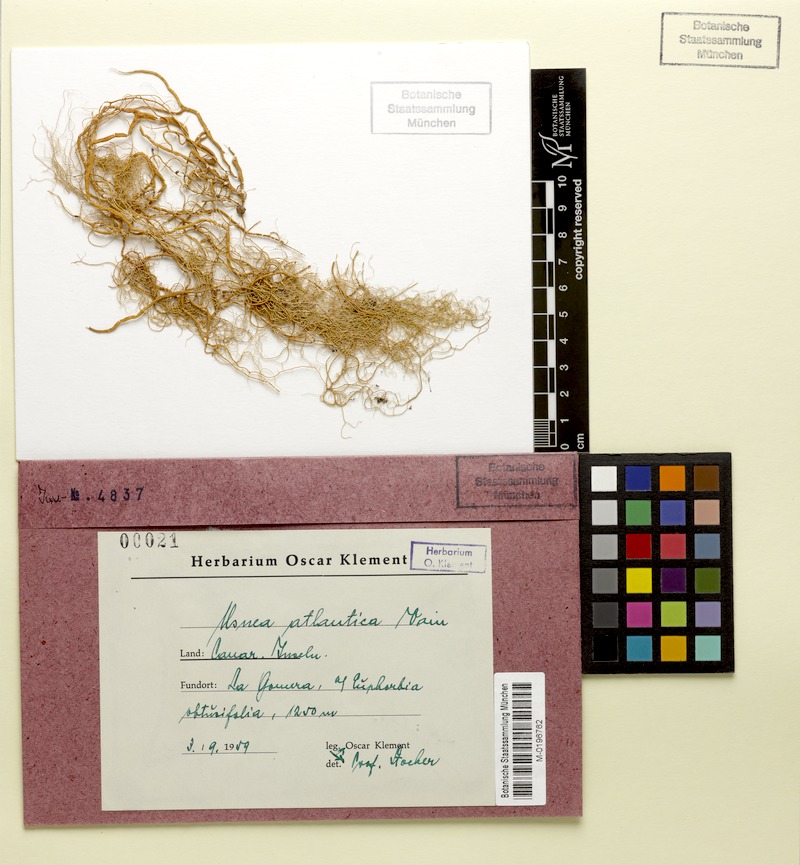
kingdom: Fungi
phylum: Ascomycota
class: Lecanoromycetes
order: Lecanorales
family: Parmeliaceae
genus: Usnea
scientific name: Usnea atlantica
